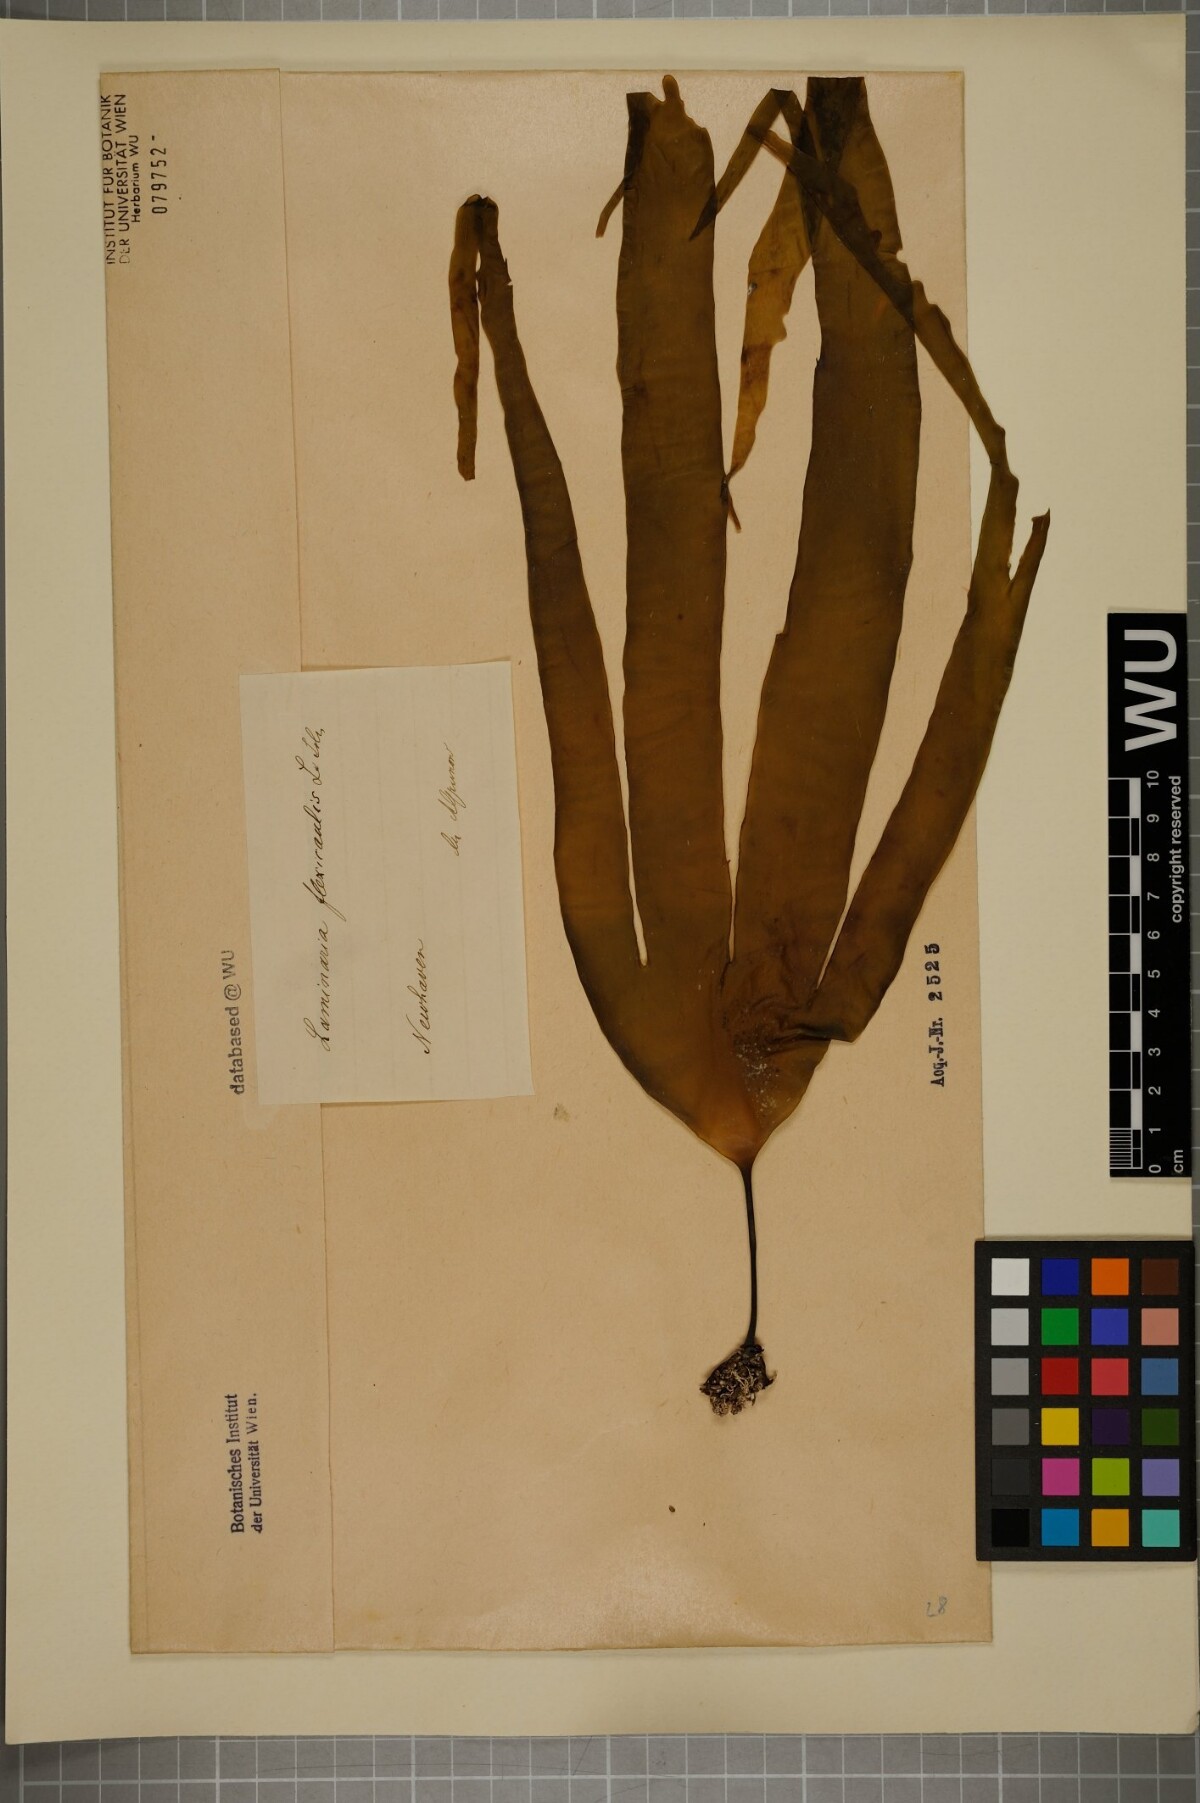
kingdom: Chromista
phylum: Ochrophyta
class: Phaeophyceae
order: Laminariales
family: Laminariaceae
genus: Laminaria
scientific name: Laminaria digitata
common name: Oarweed
